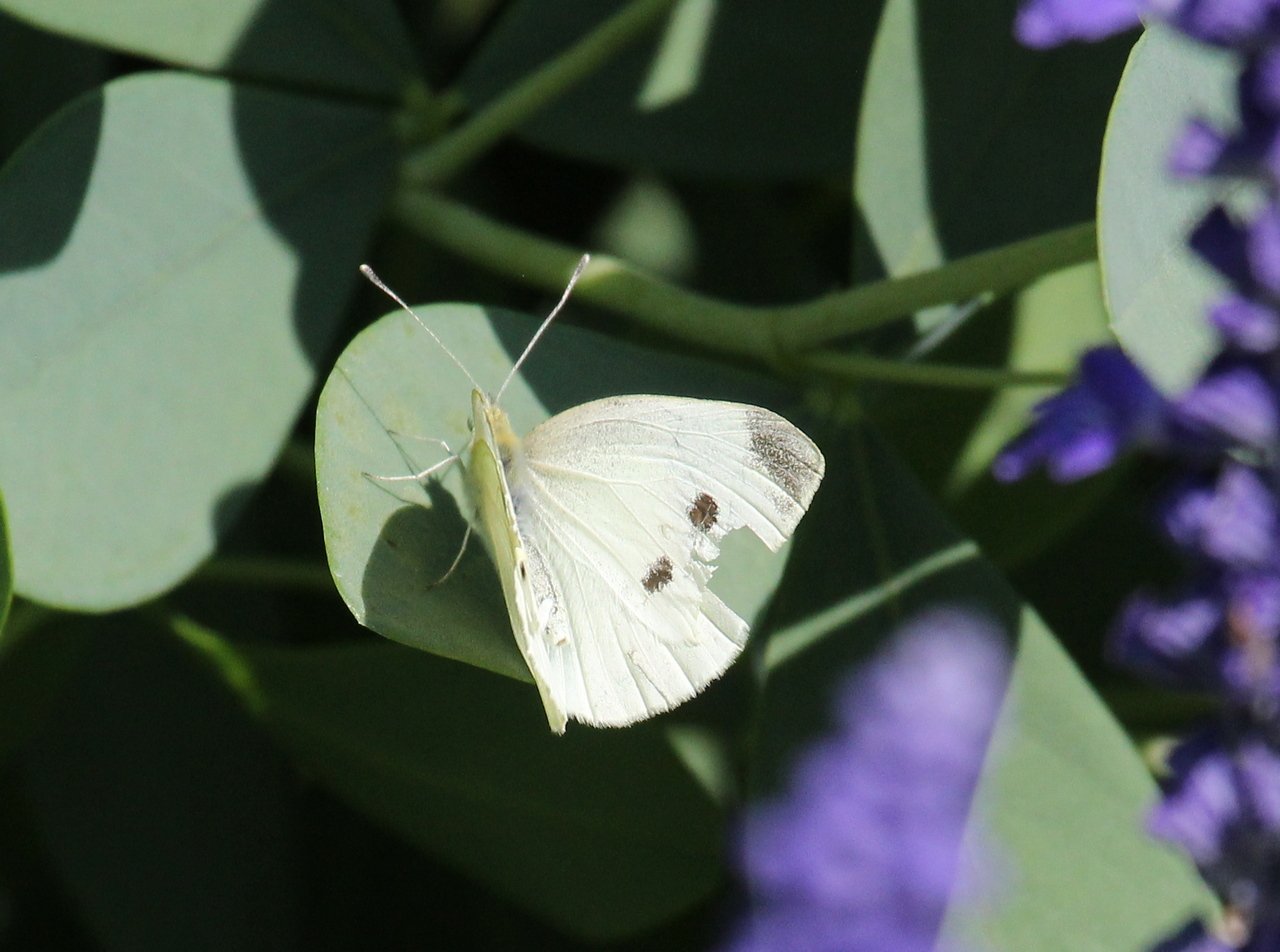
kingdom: Animalia
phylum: Arthropoda
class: Insecta
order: Lepidoptera
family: Pieridae
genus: Pieris
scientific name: Pieris rapae
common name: Cabbage White
